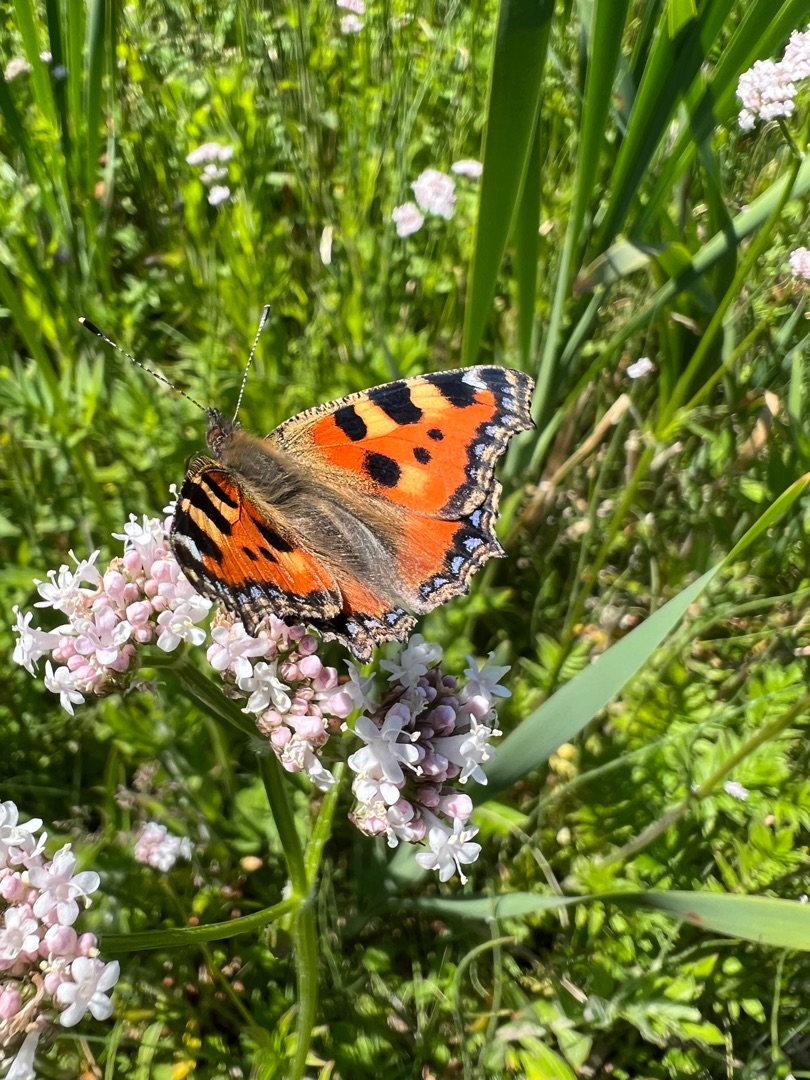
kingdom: Animalia
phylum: Arthropoda
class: Insecta
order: Lepidoptera
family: Nymphalidae
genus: Aglais
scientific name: Aglais urticae
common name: Nældens takvinge
